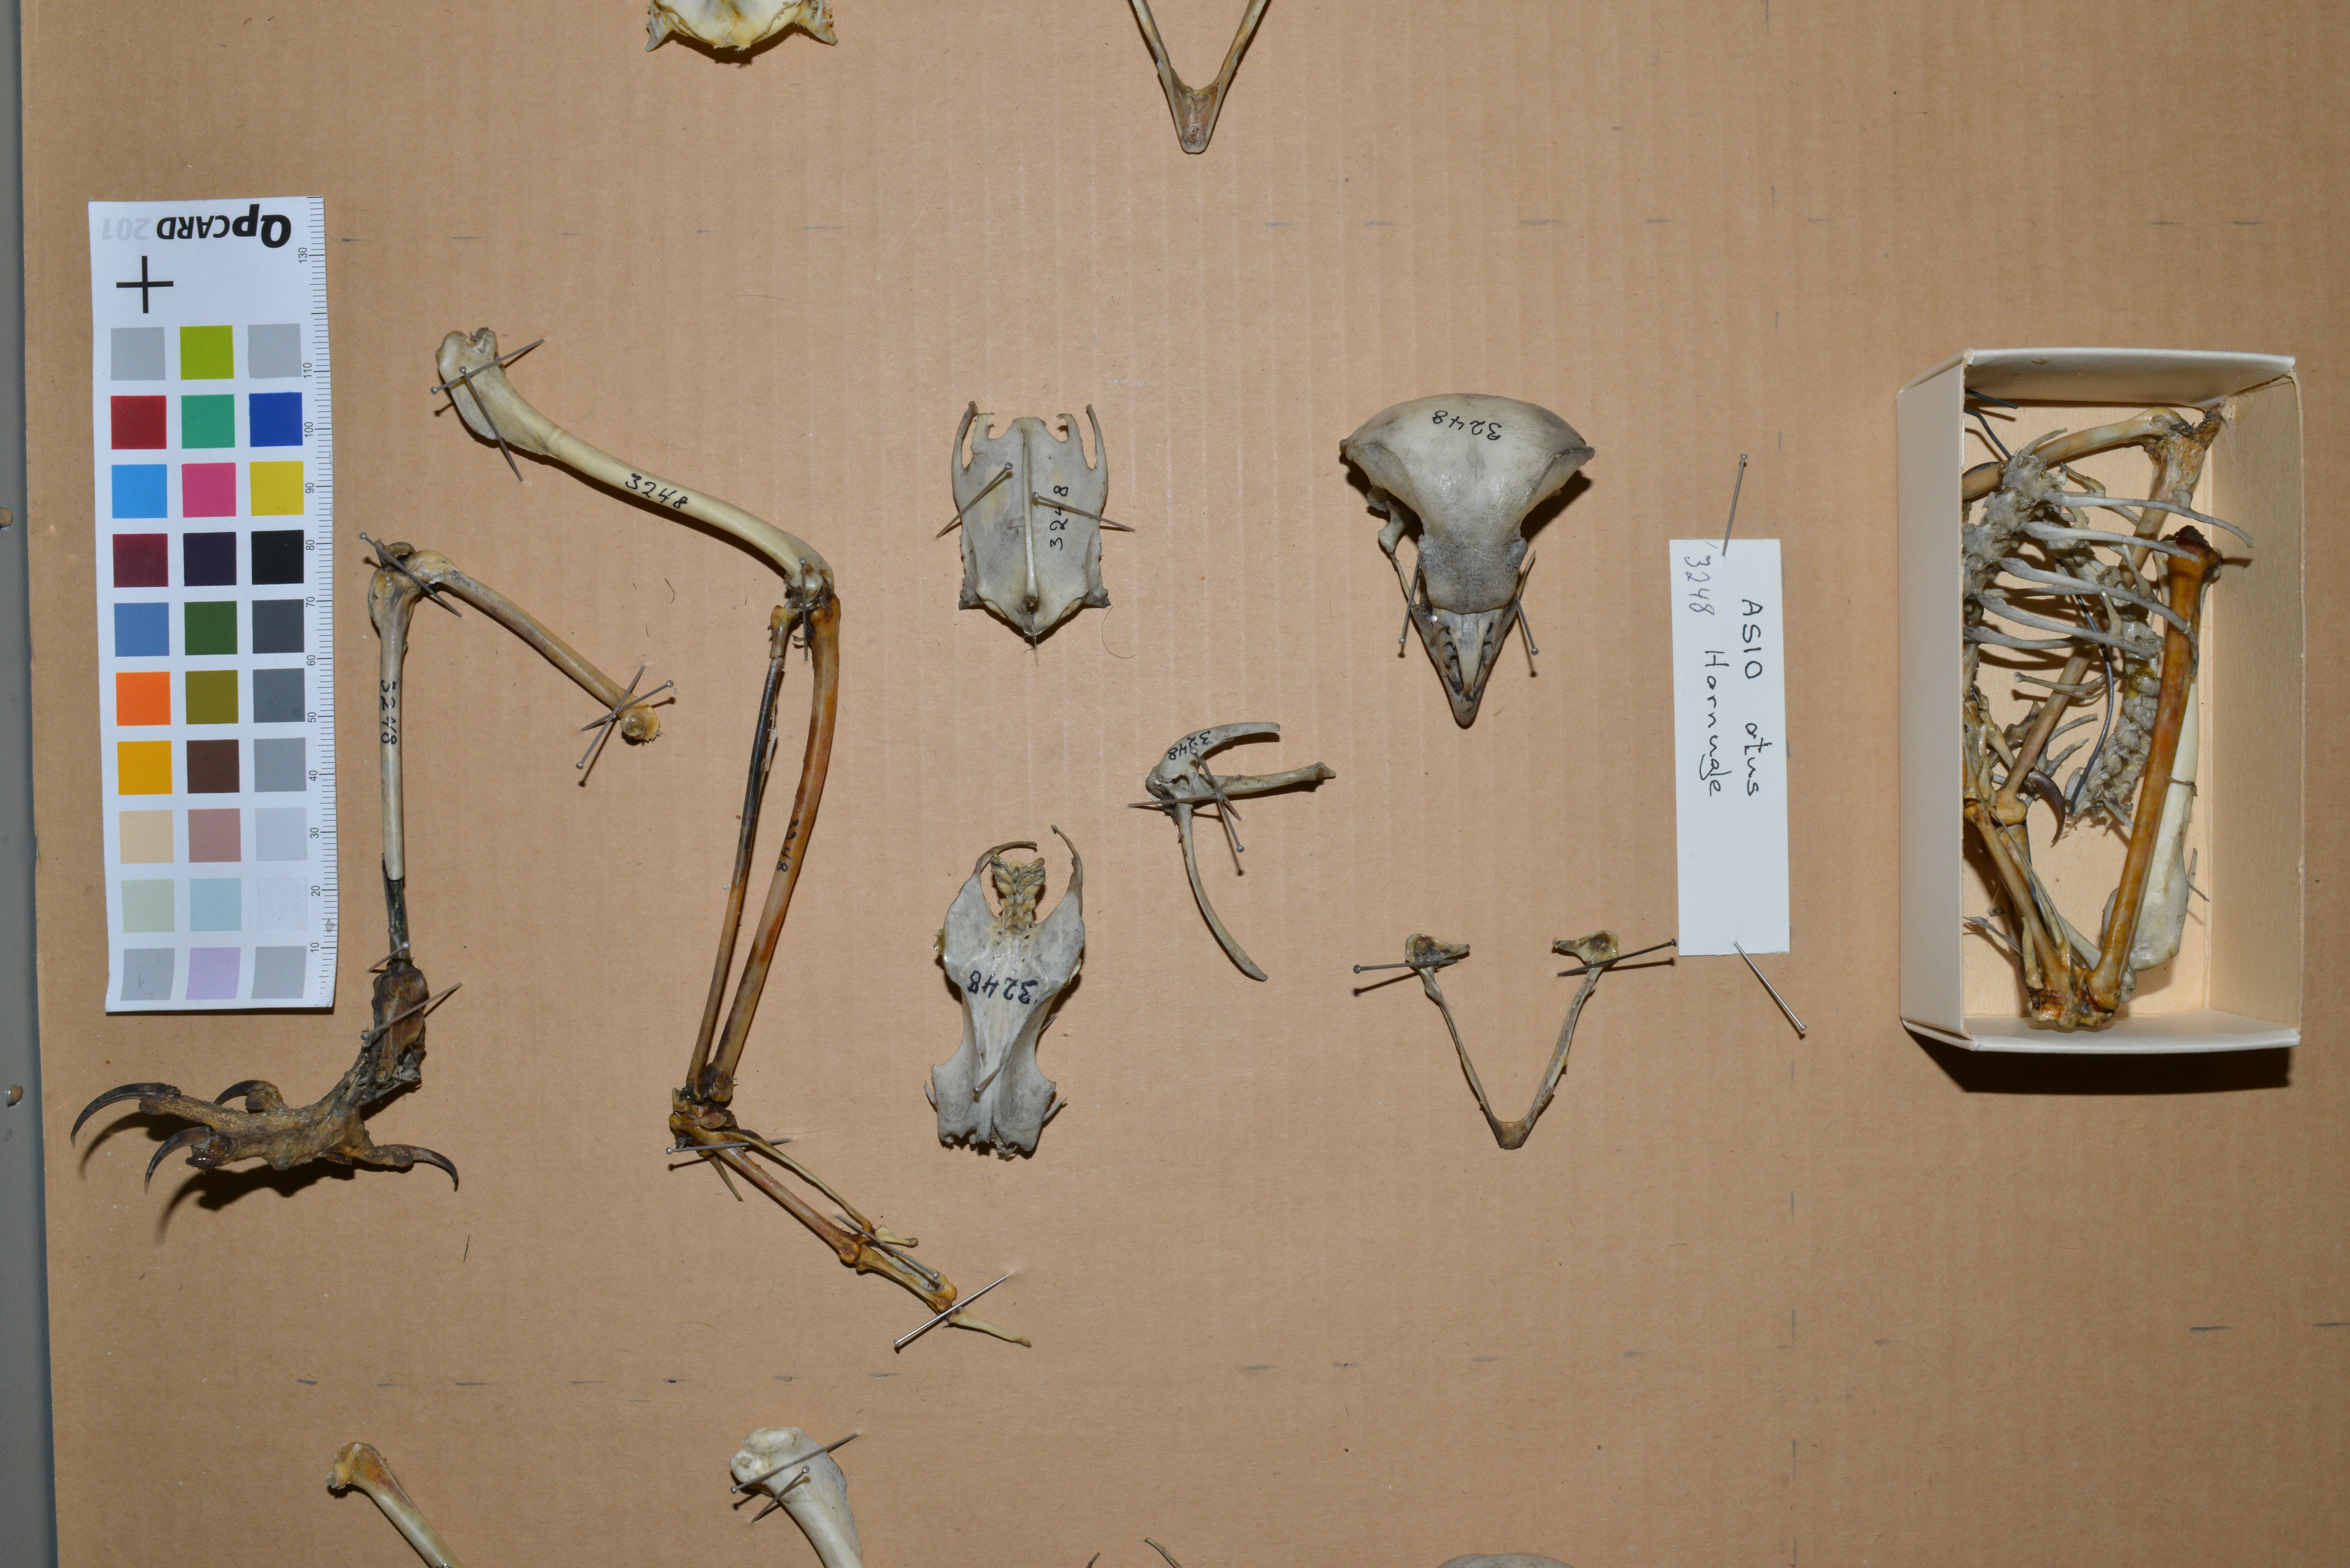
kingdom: Animalia
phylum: Chordata
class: Aves
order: Strigiformes
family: Strigidae
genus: Asio
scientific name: Asio otus
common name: Long-eared owl
